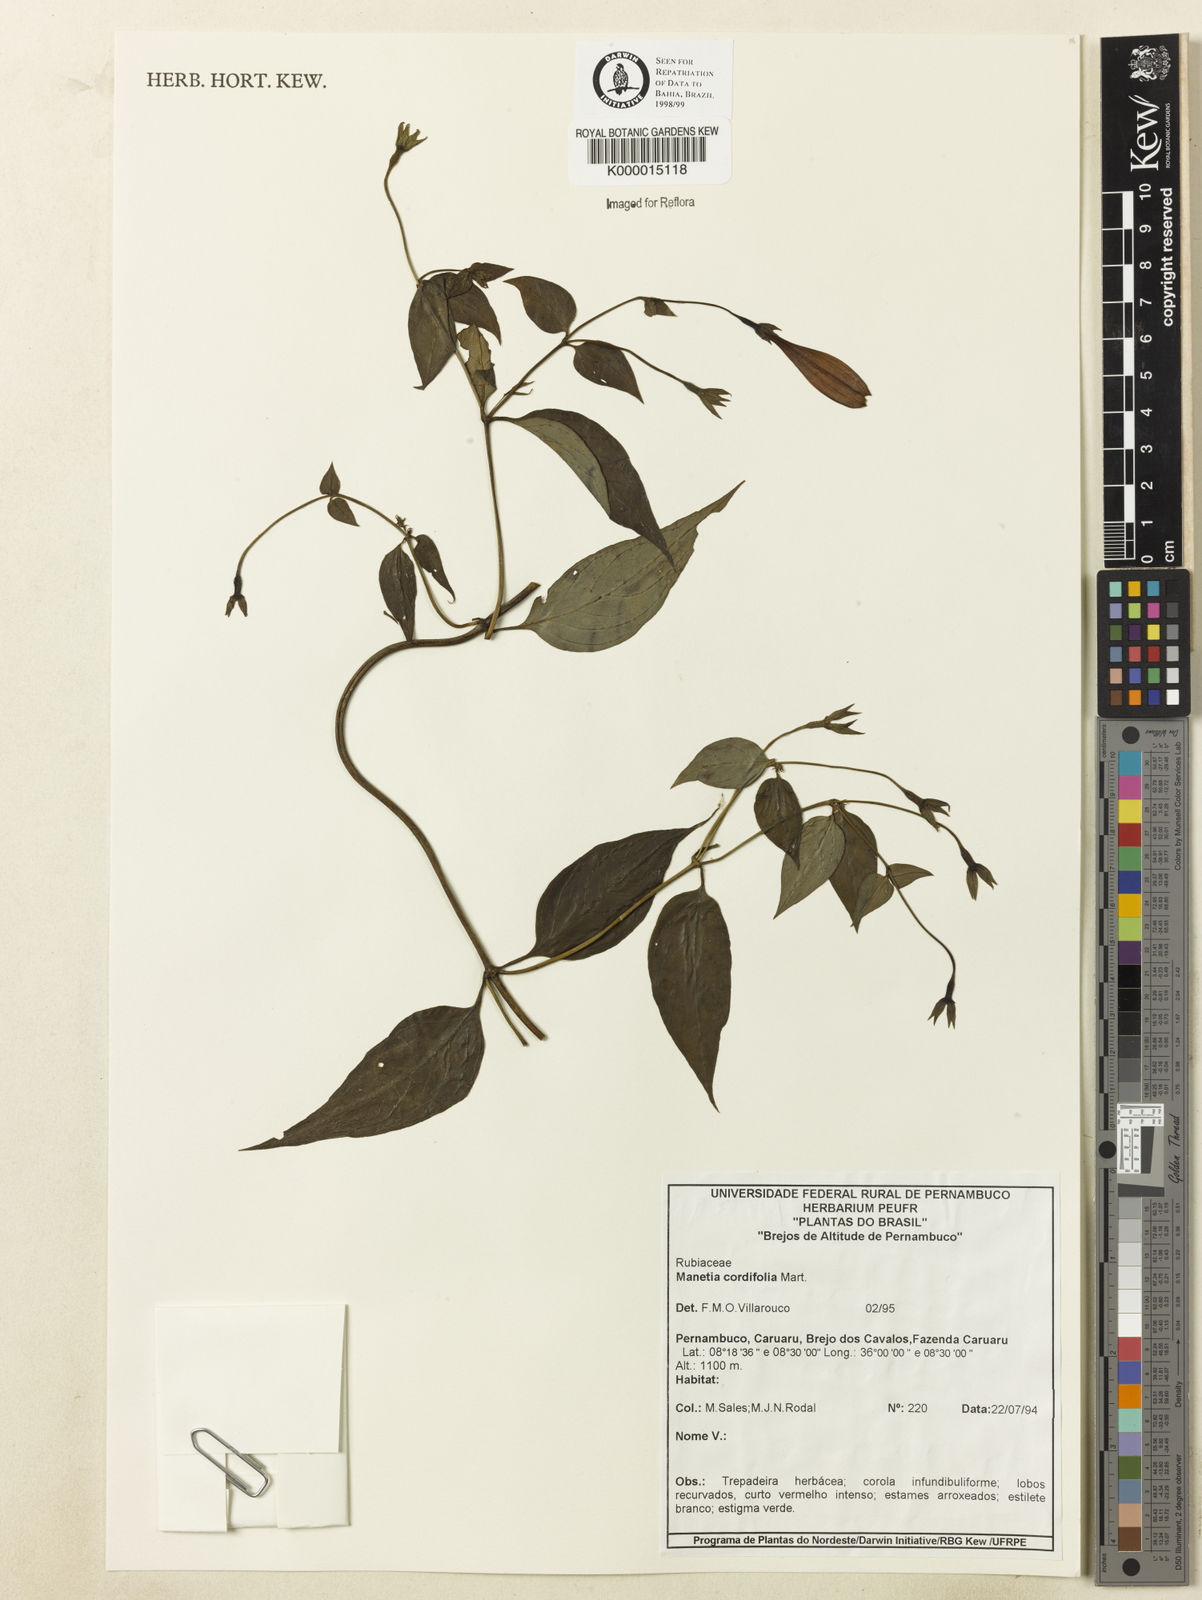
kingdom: Plantae
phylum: Tracheophyta
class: Magnoliopsida
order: Gentianales
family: Rubiaceae
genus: Manettia
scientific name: Manettia cordifolia
